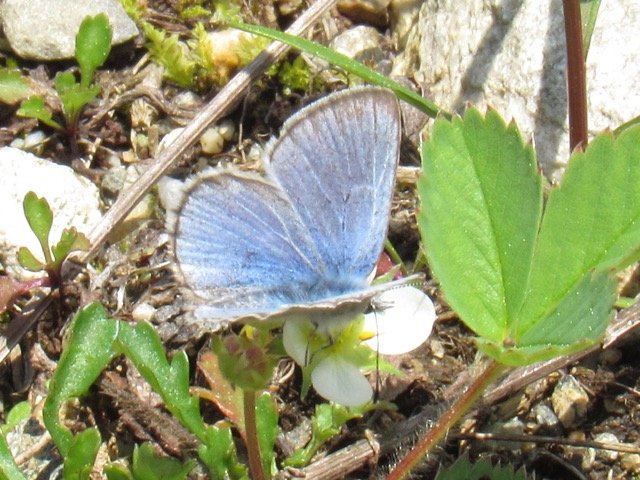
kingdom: Animalia
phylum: Arthropoda
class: Insecta
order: Lepidoptera
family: Lycaenidae
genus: Glaucopsyche
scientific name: Glaucopsyche lygdamus
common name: Silvery Blue
